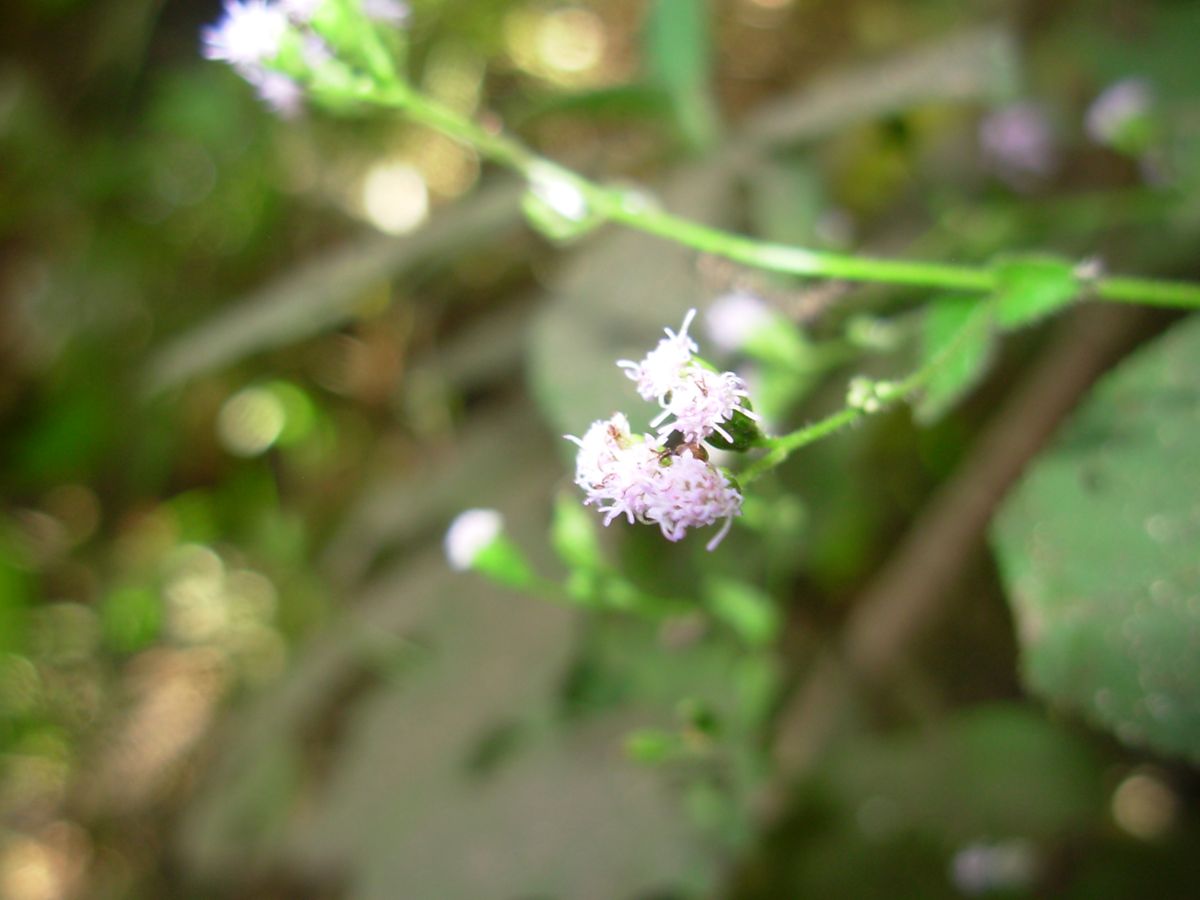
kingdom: Plantae
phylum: Tracheophyta
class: Magnoliopsida
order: Asterales
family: Asteraceae
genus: Ageratum
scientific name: Ageratum
